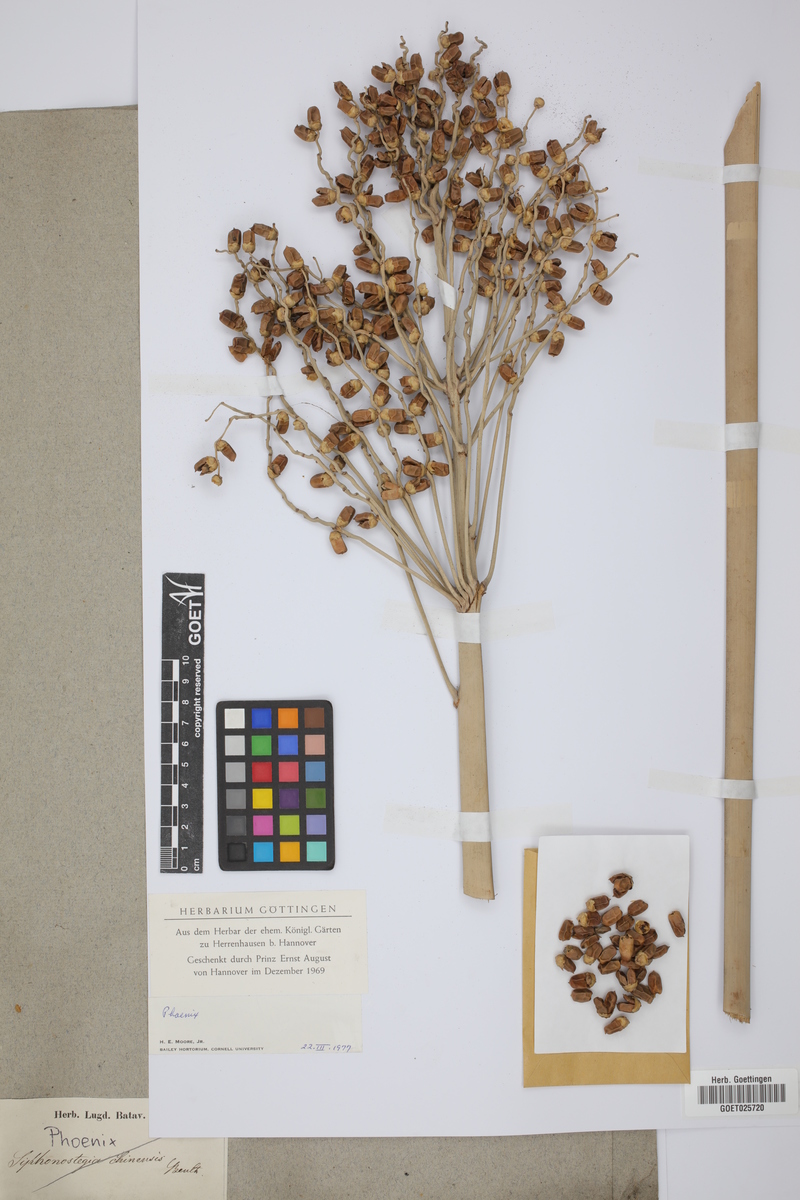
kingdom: Plantae
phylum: Tracheophyta
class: Liliopsida
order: Arecales
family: Arecaceae
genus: Phoenix
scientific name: Phoenix
